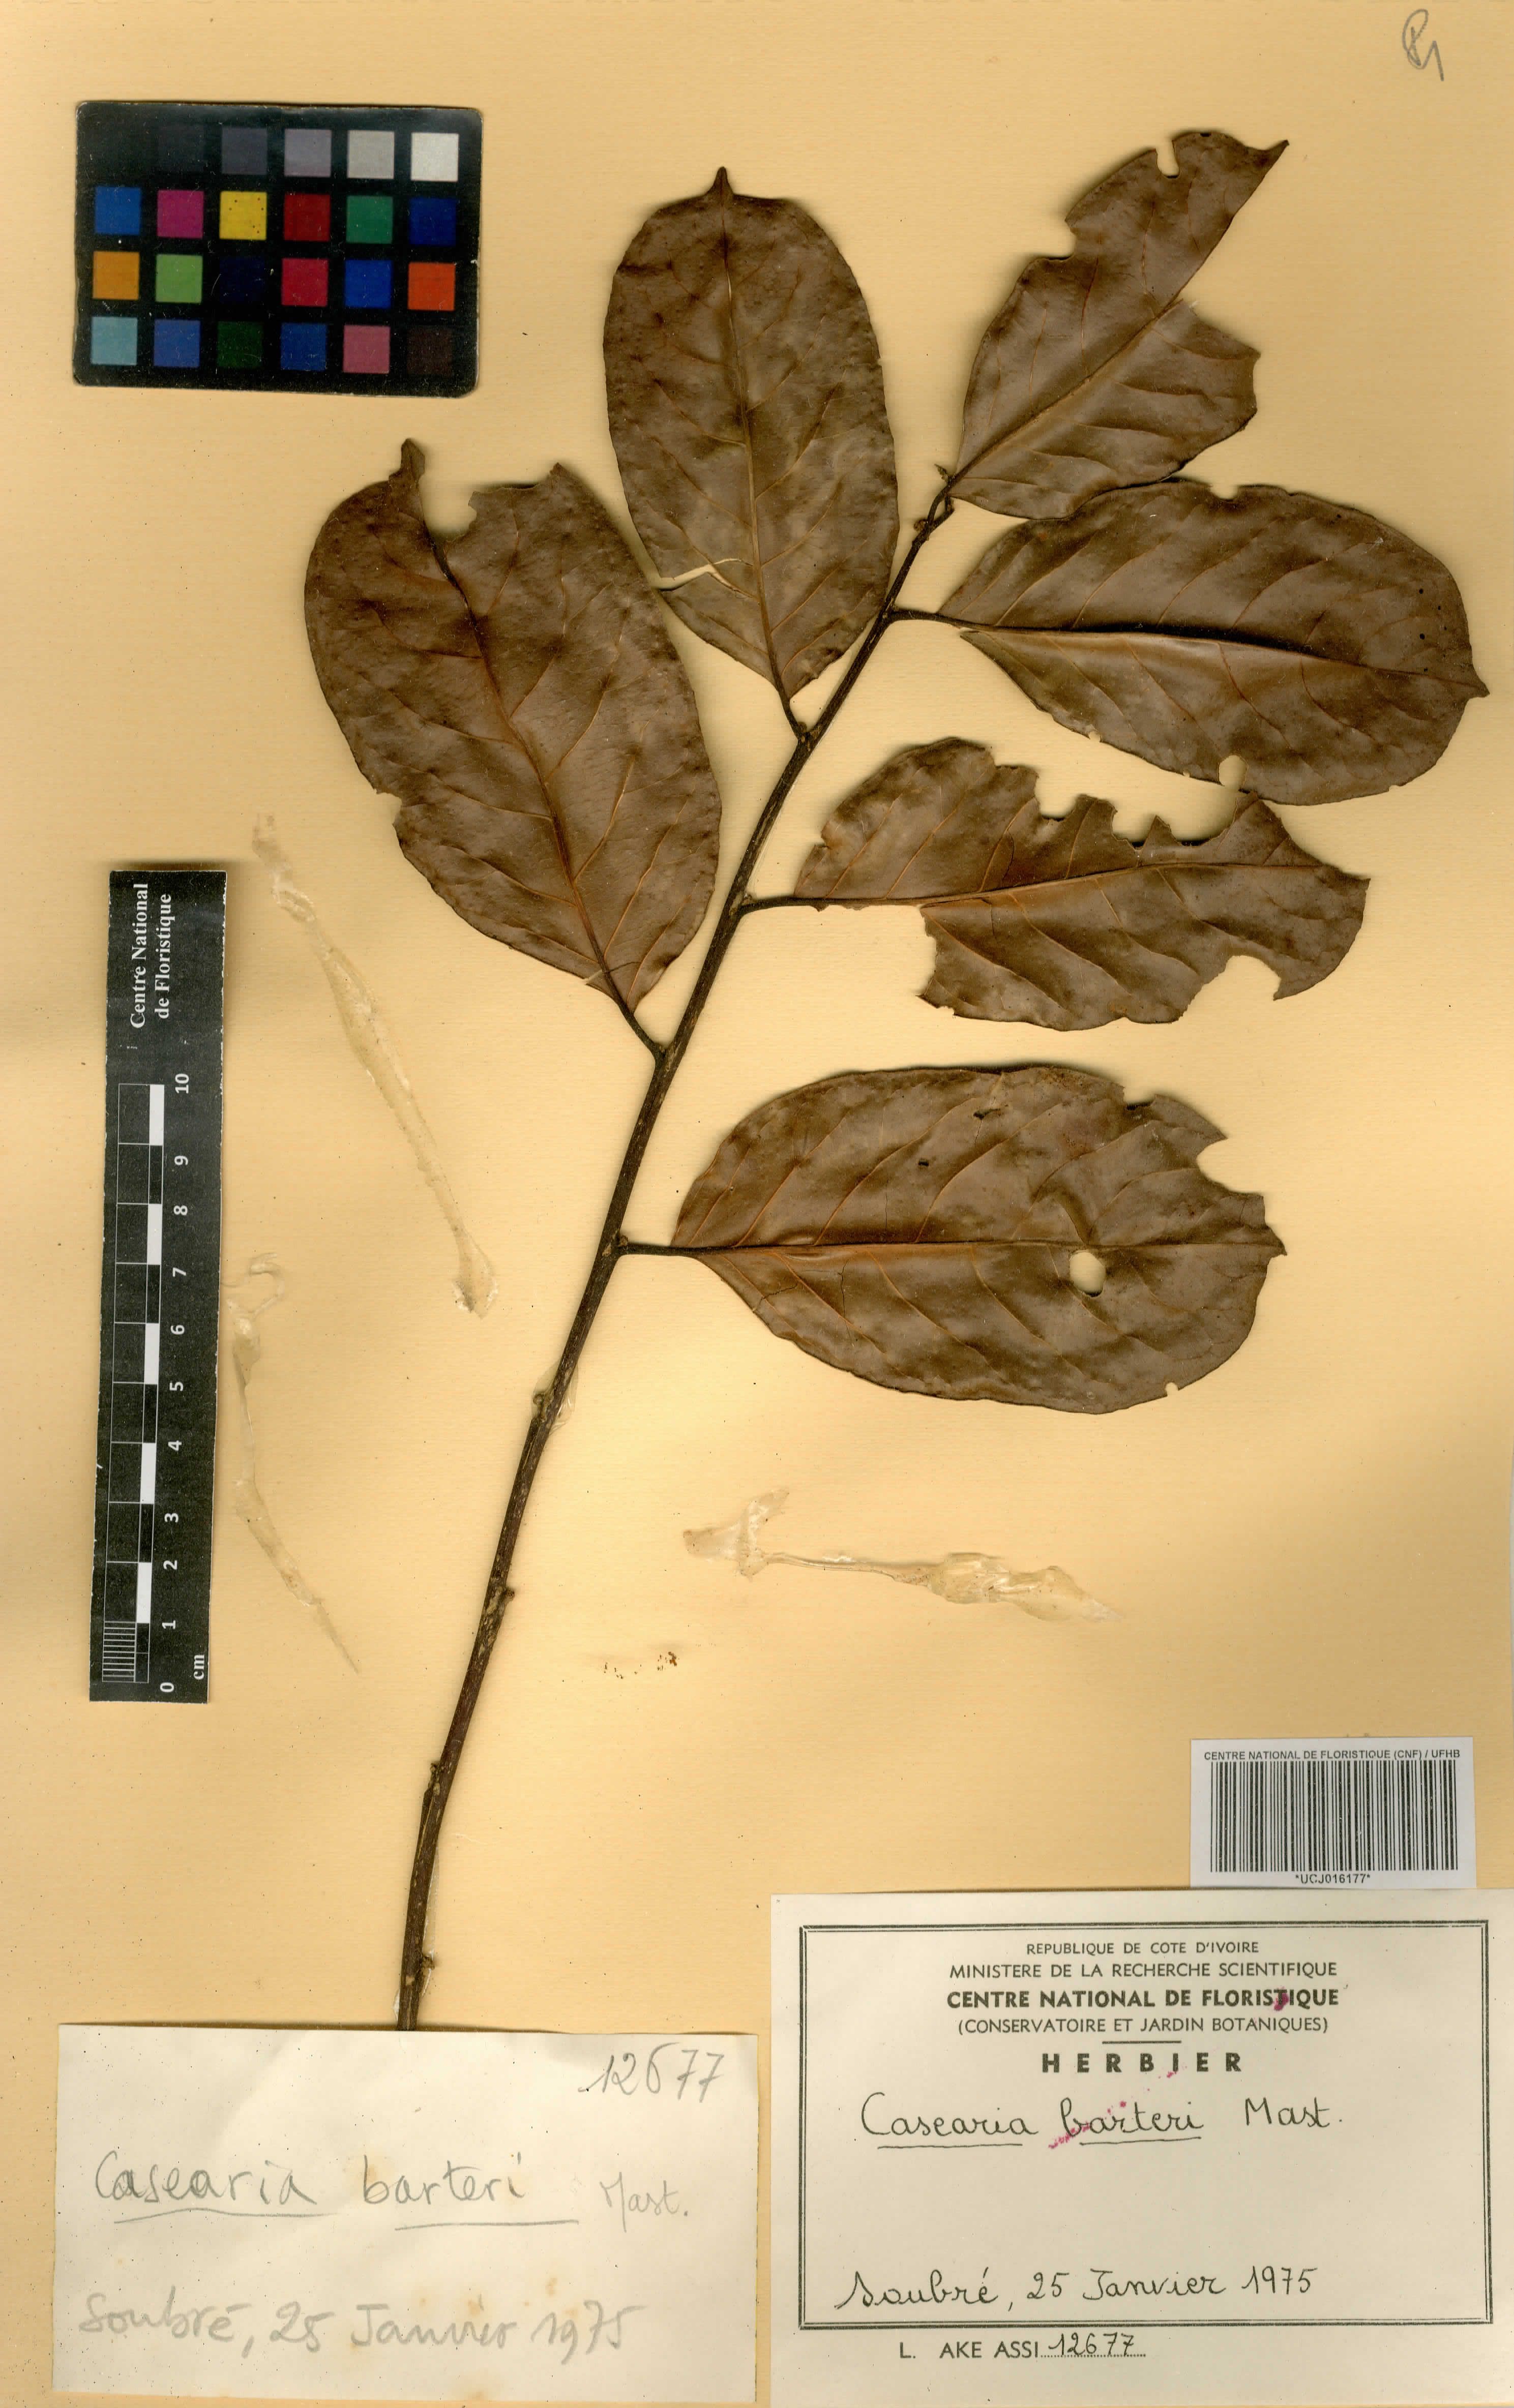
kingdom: Plantae
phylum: Tracheophyta
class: Magnoliopsida
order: Malpighiales
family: Salicaceae
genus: Casearia
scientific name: Casearia barteri
